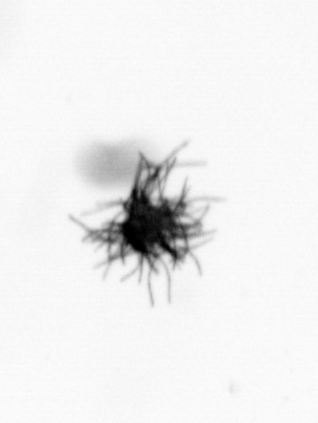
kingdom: Bacteria
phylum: Cyanobacteria
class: Cyanobacteriia
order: Cyanobacteriales
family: Microcoleaceae
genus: Trichodesmium
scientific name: Trichodesmium
